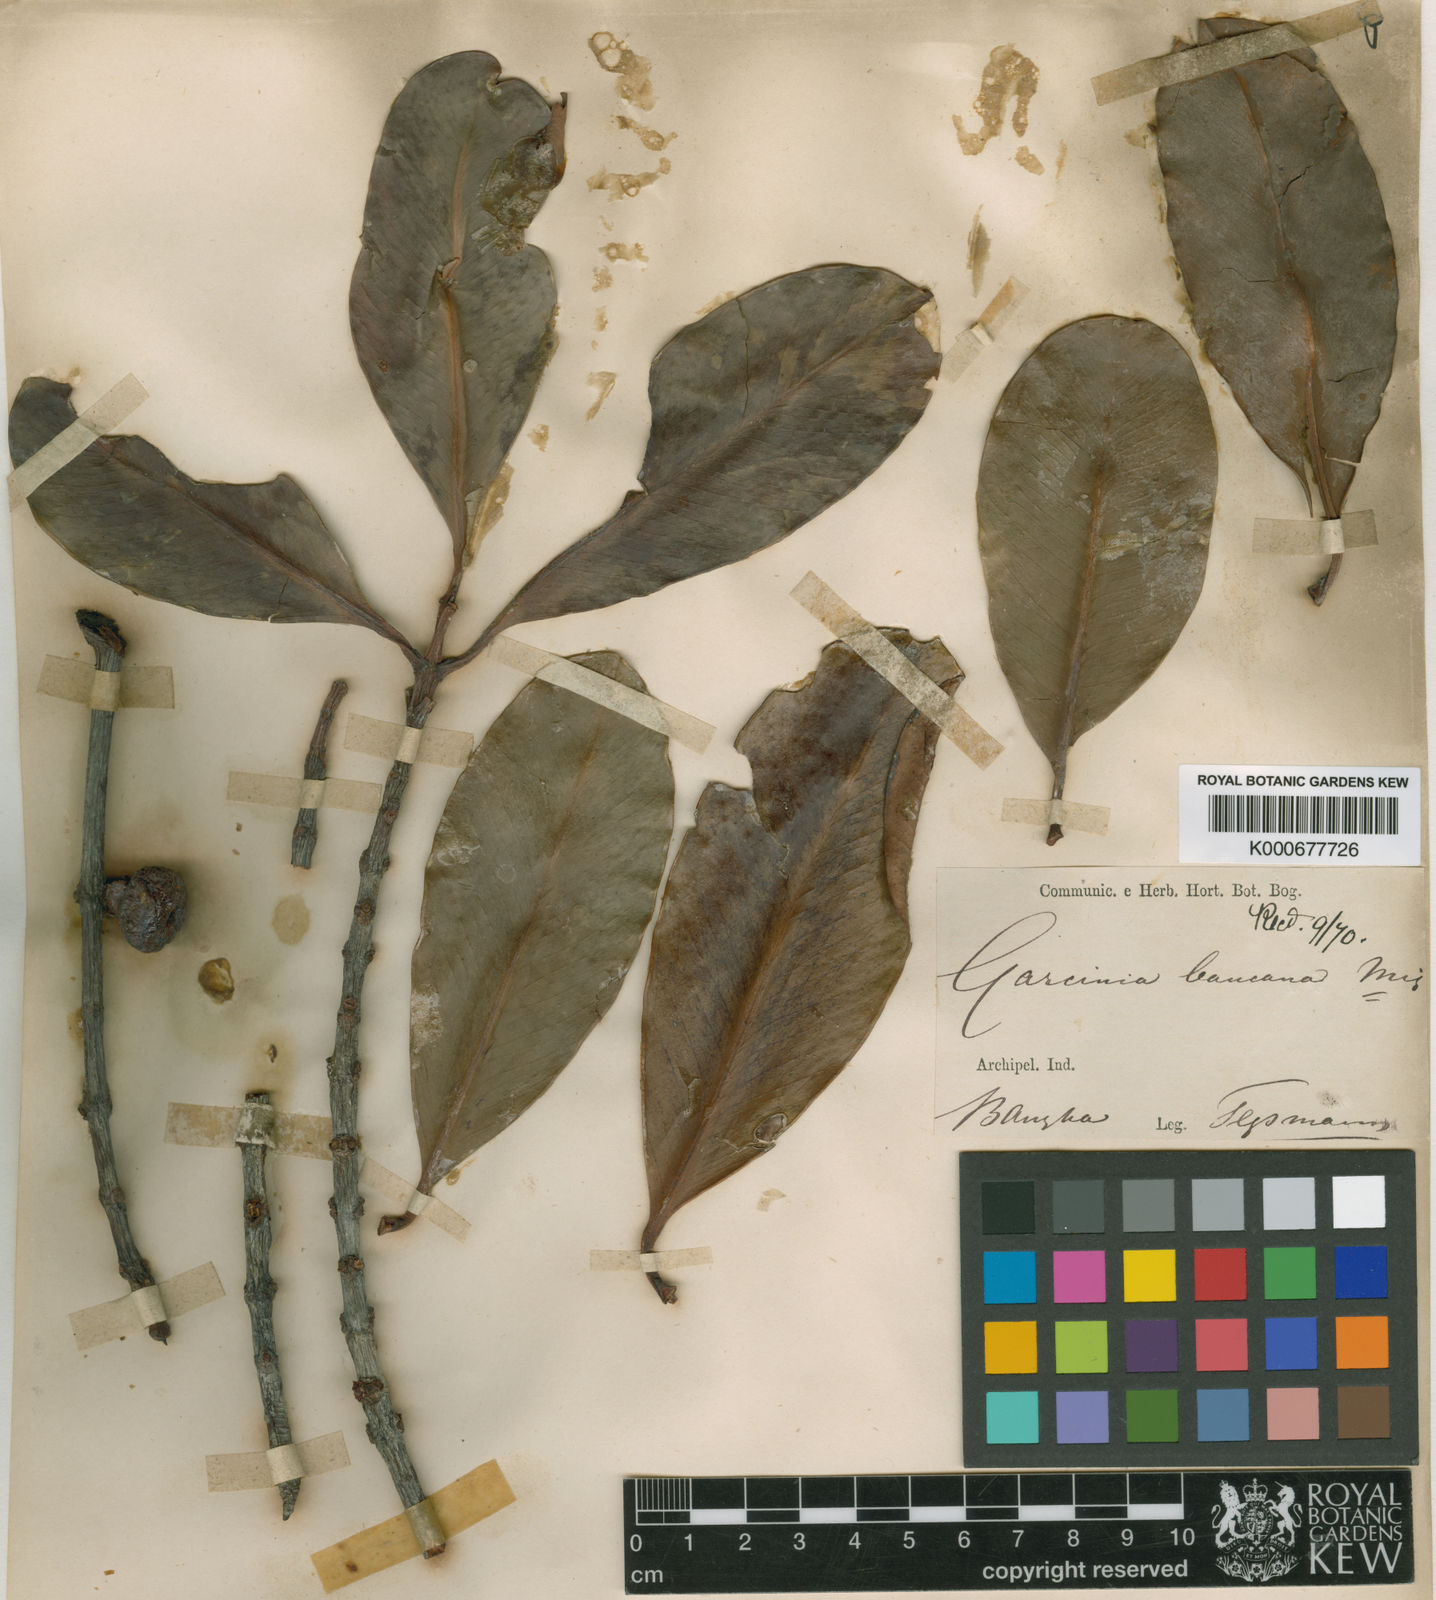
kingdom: Plantae
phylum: Tracheophyta
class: Magnoliopsida
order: Malpighiales
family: Clusiaceae
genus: Garcinia
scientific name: Garcinia bancana
